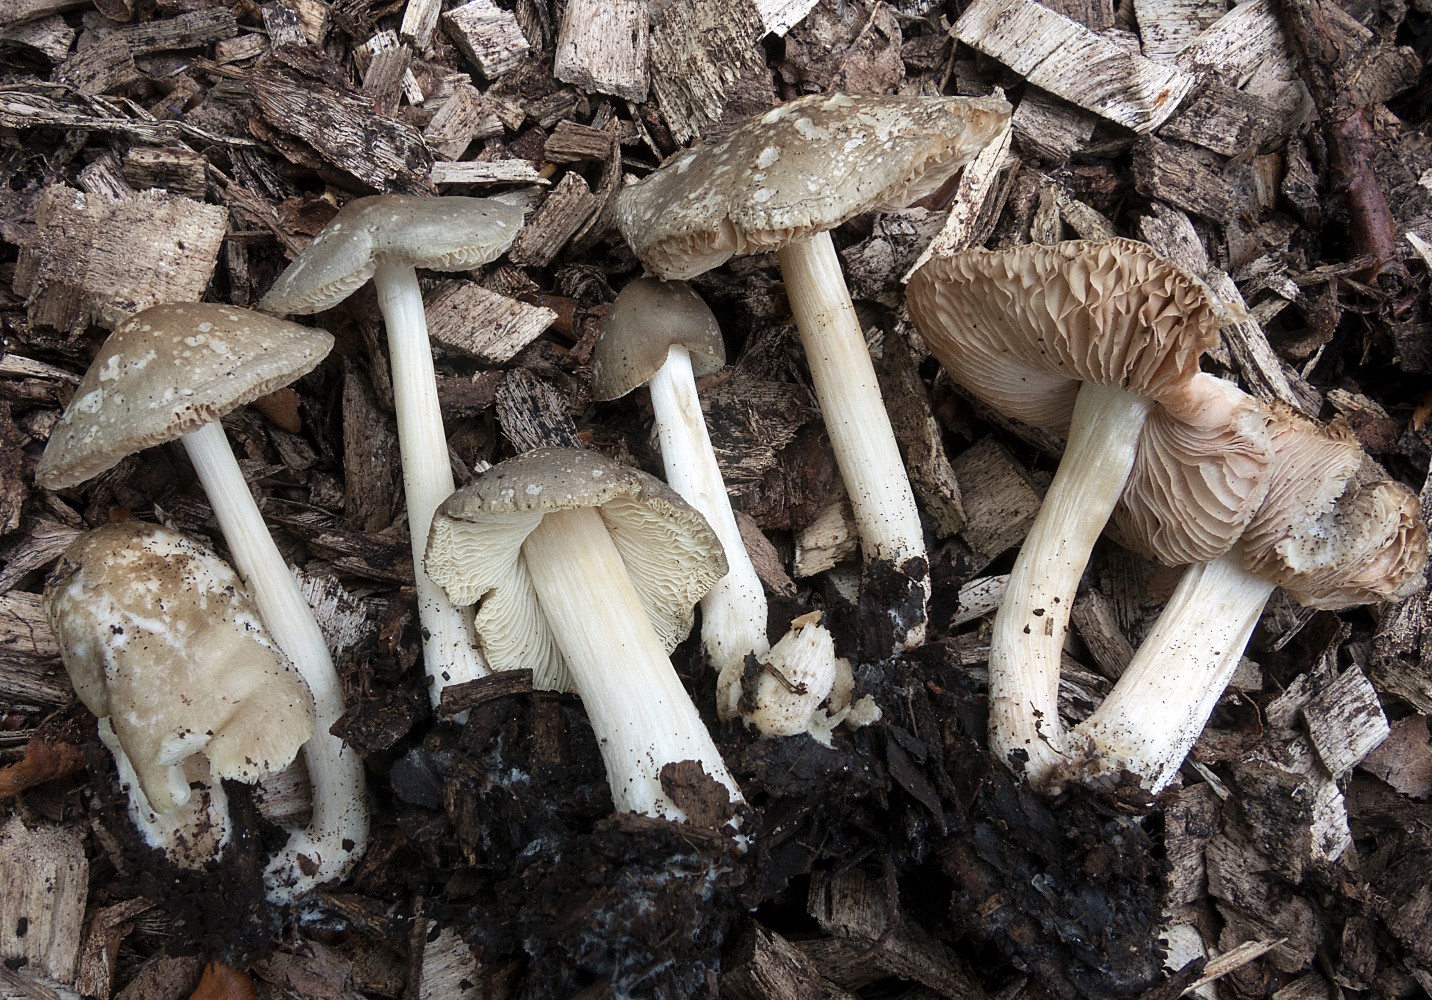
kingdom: Fungi
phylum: Basidiomycota
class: Agaricomycetes
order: Agaricales
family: Pluteaceae
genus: Pluteus
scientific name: Pluteus
